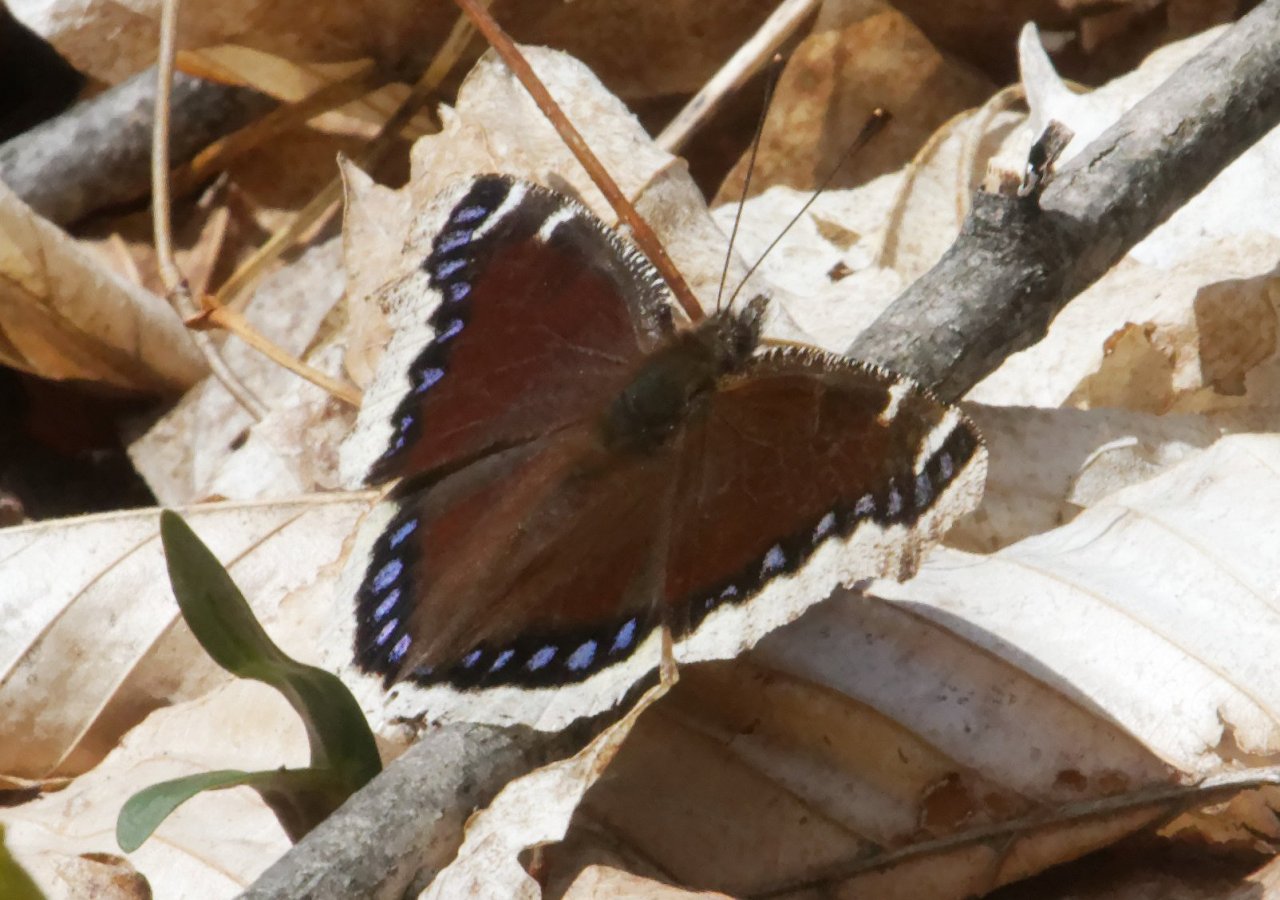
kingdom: Animalia
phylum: Arthropoda
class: Insecta
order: Lepidoptera
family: Nymphalidae
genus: Nymphalis
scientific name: Nymphalis antiopa
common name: Mourning Cloak
